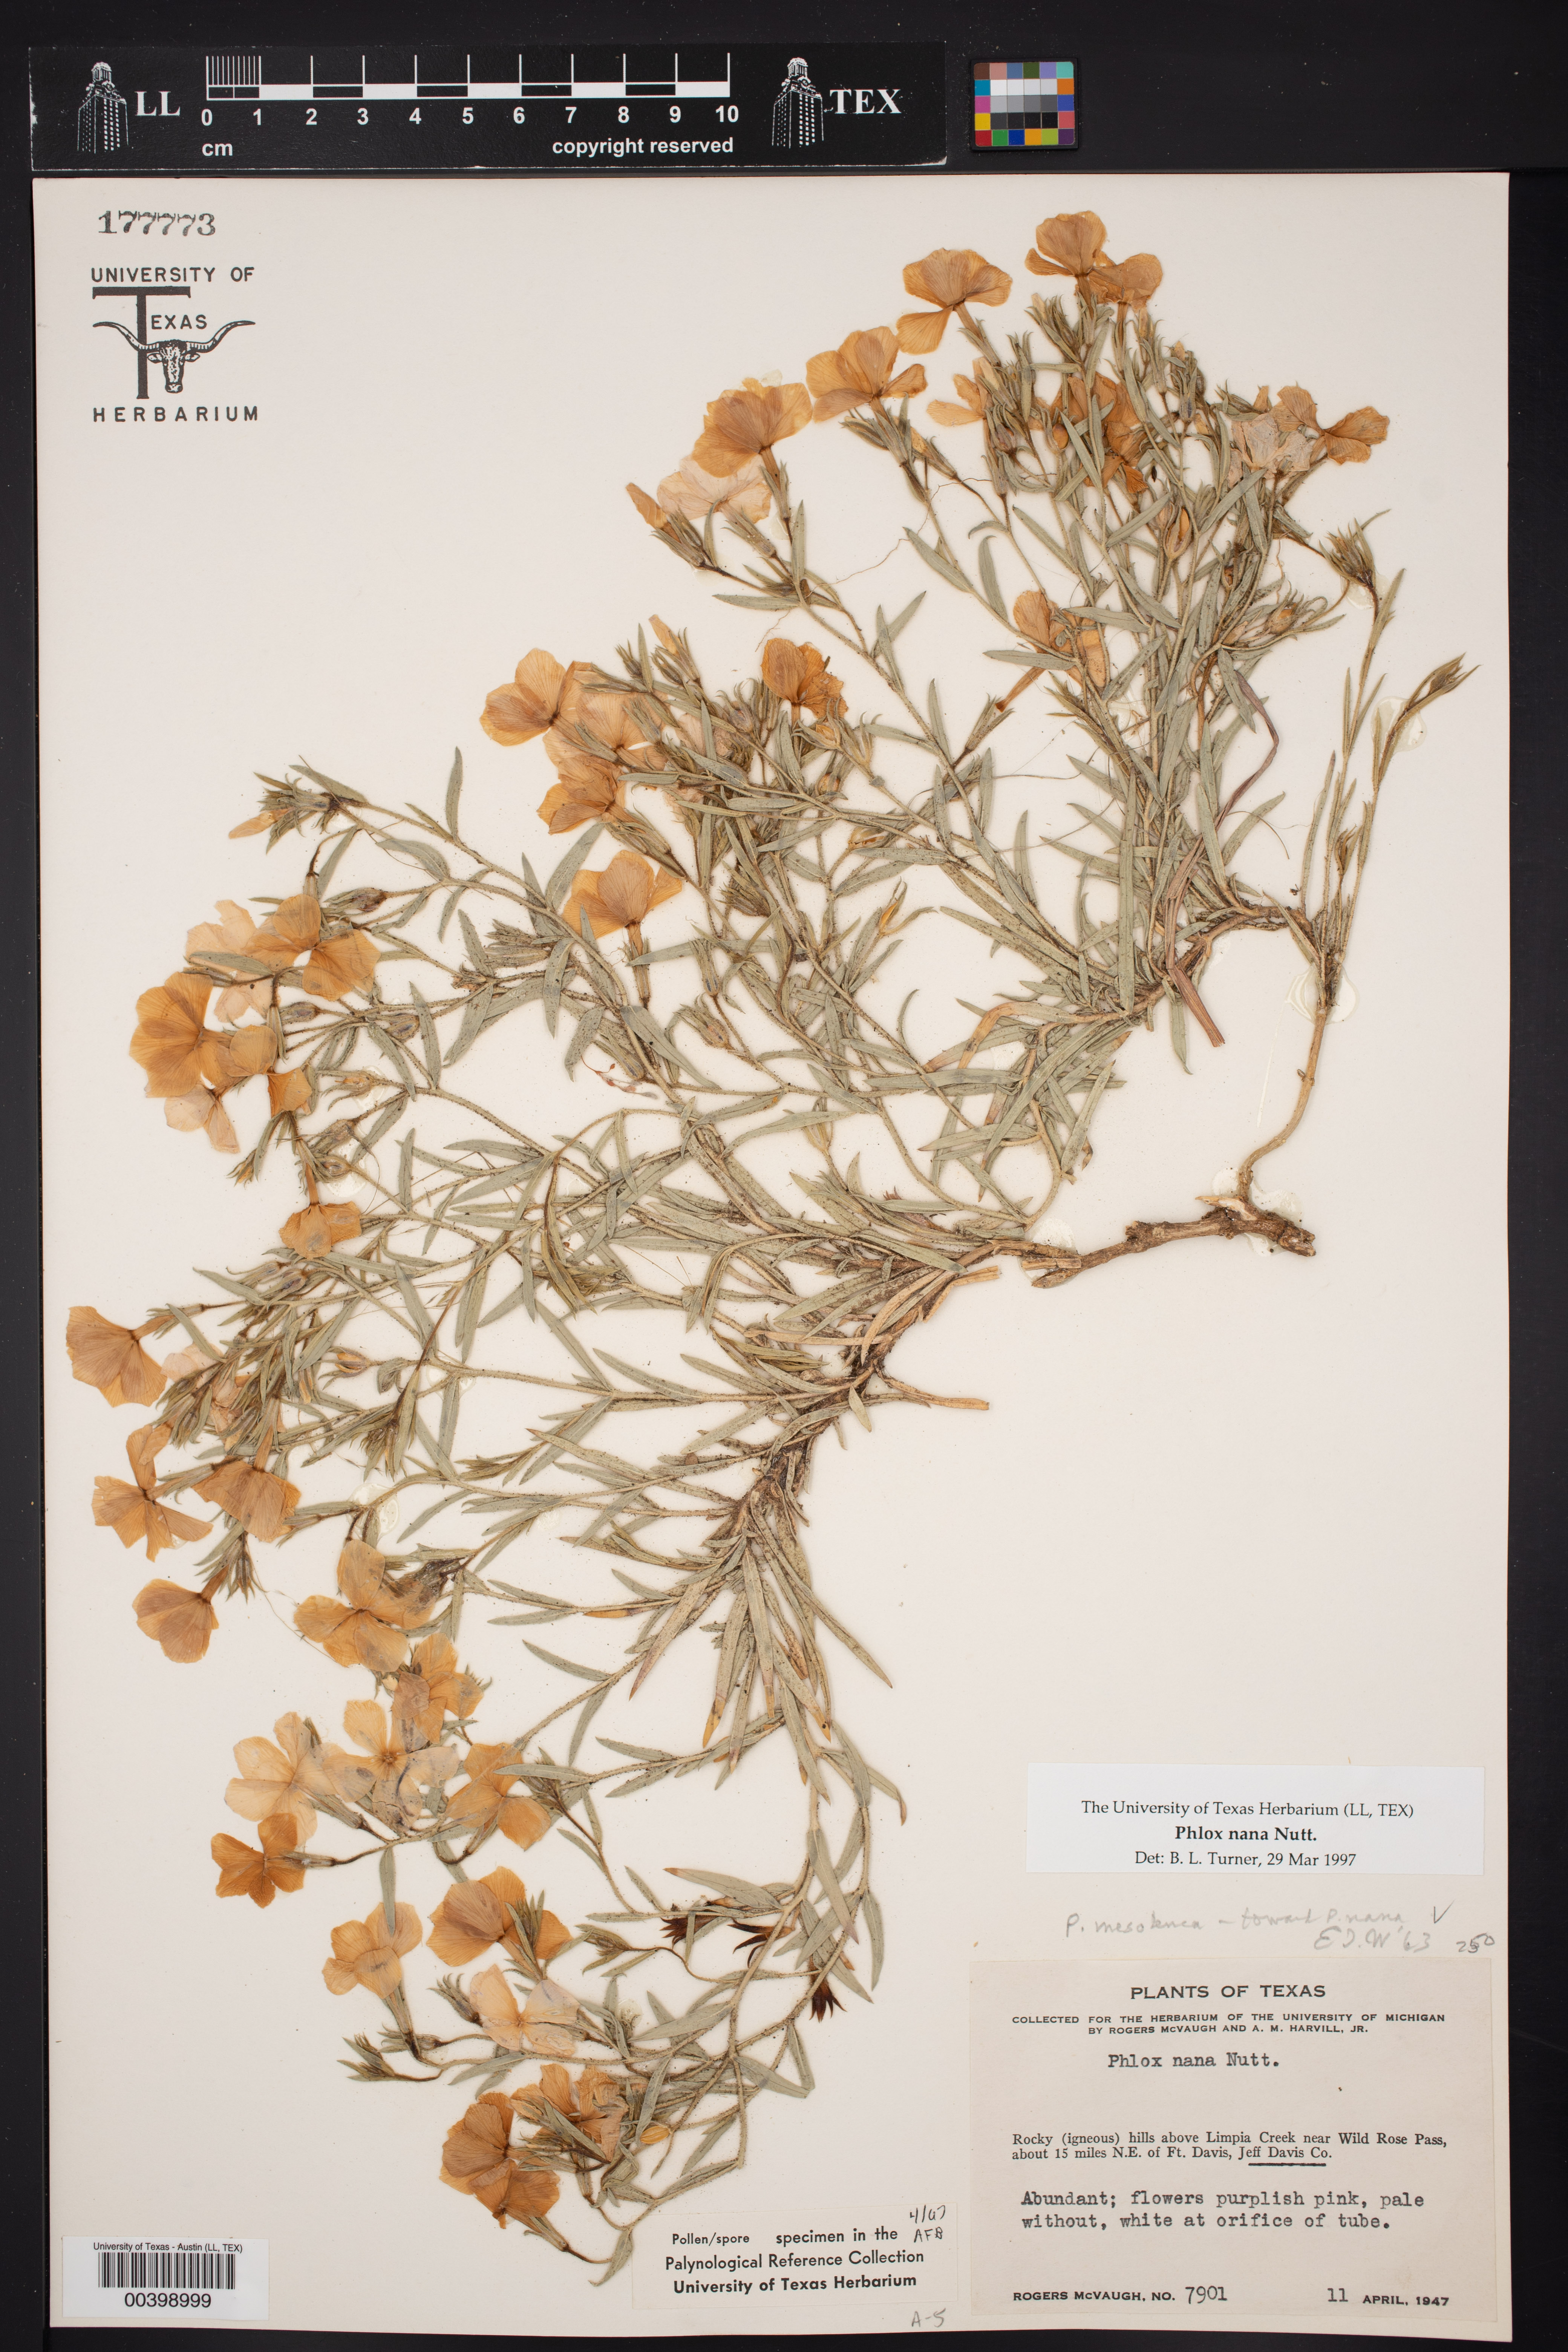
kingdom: Plantae
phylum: Tracheophyta
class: Magnoliopsida
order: Ericales
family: Polemoniaceae
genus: Phlox
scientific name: Phlox nana
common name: Santa fe phlox
